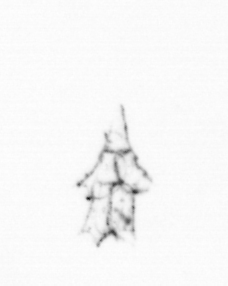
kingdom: Animalia
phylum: Cnidaria
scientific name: Cnidaria
